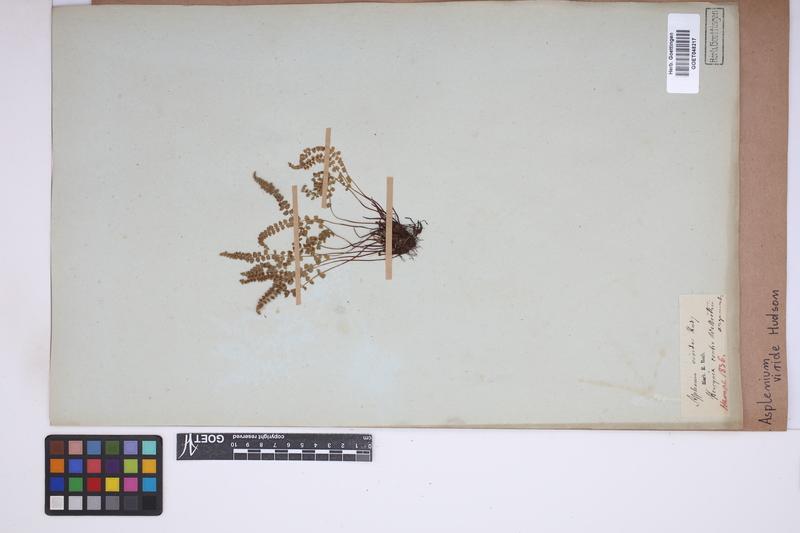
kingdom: Plantae
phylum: Tracheophyta
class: Polypodiopsida
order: Polypodiales
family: Aspleniaceae
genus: Asplenium
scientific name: Asplenium viride
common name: Green spleenwort
